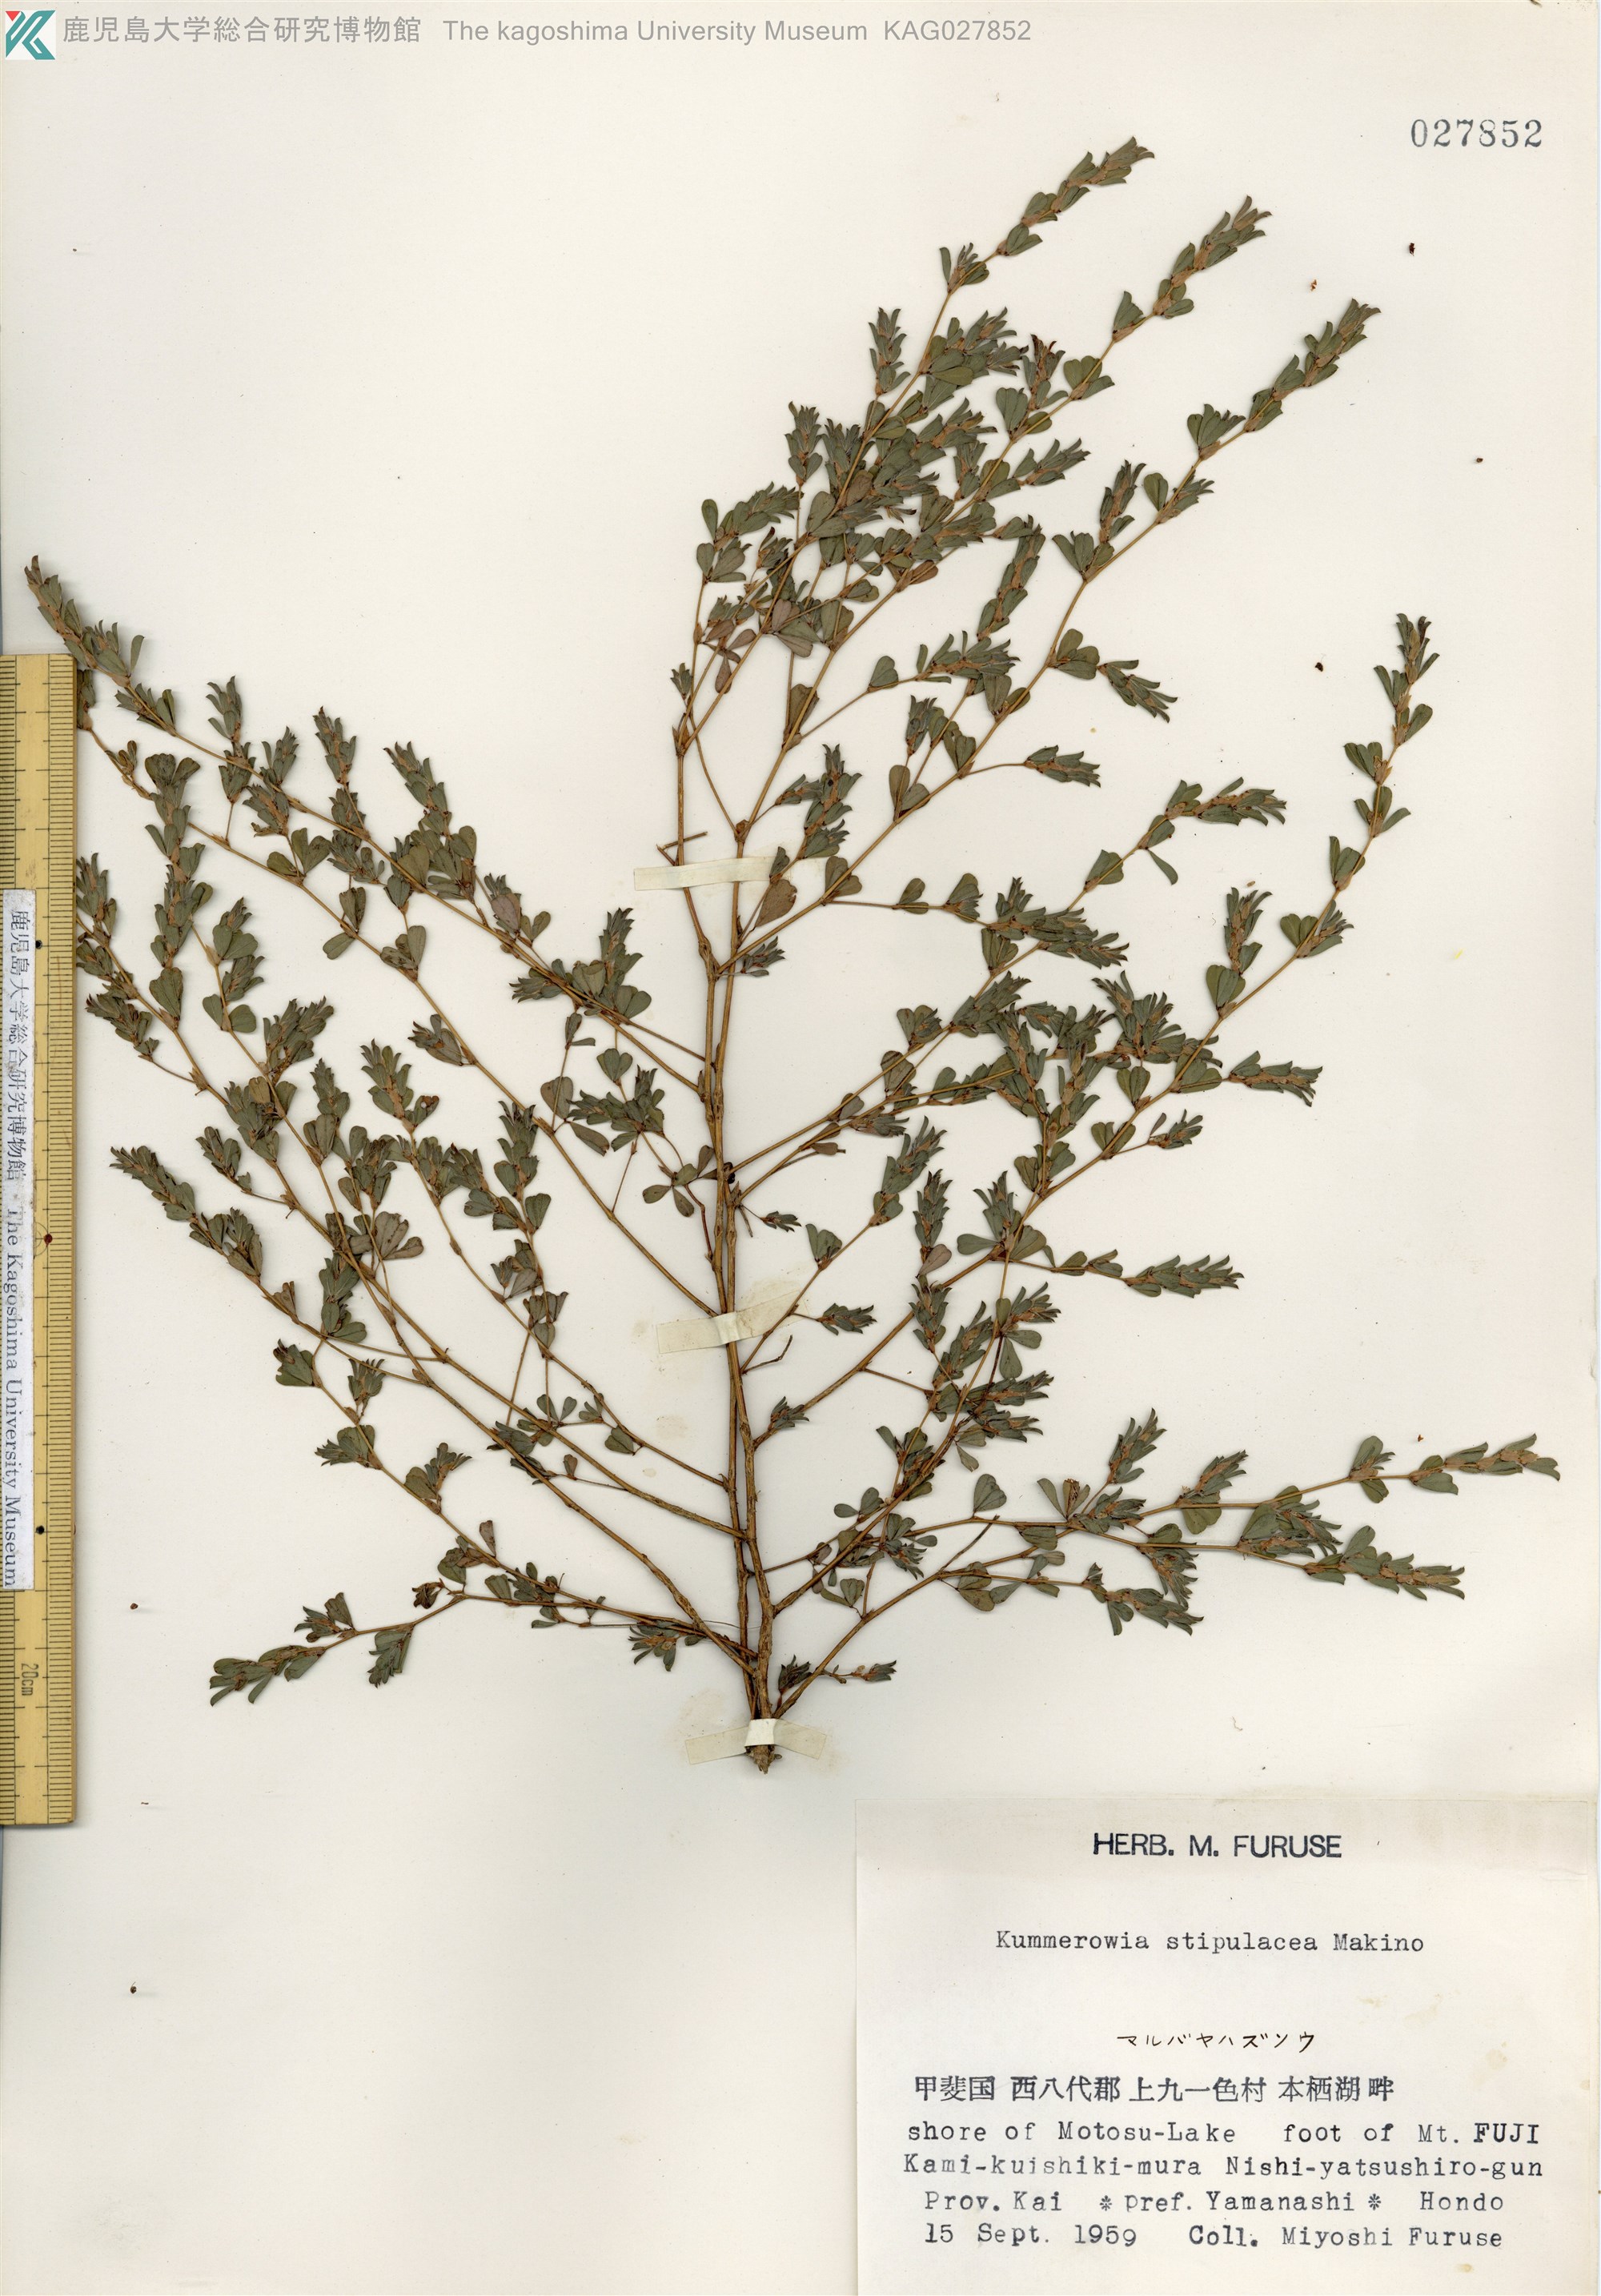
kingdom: Plantae
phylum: Tracheophyta
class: Magnoliopsida
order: Fabales
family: Fabaceae
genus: Kummerowia
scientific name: Kummerowia stipulacea
